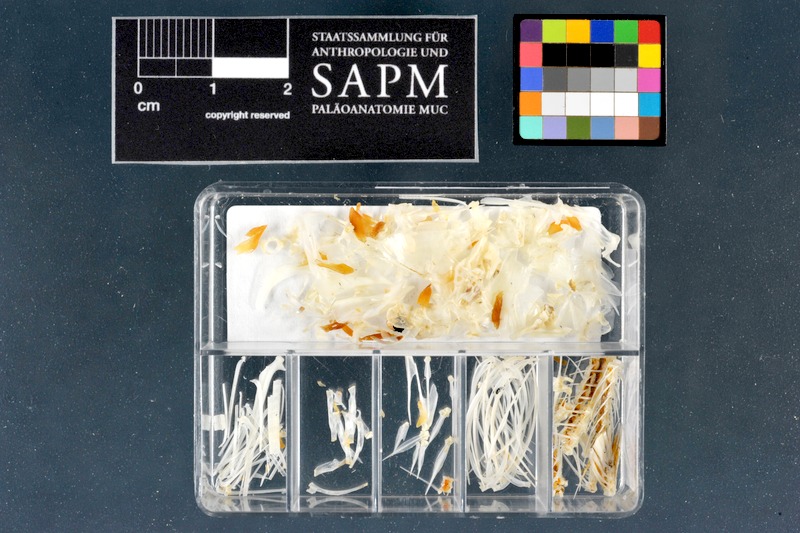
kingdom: Animalia
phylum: Chordata
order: Cypriniformes
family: Cyprinidae
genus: Rutilus
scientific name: Rutilus rutilus
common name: Roach
